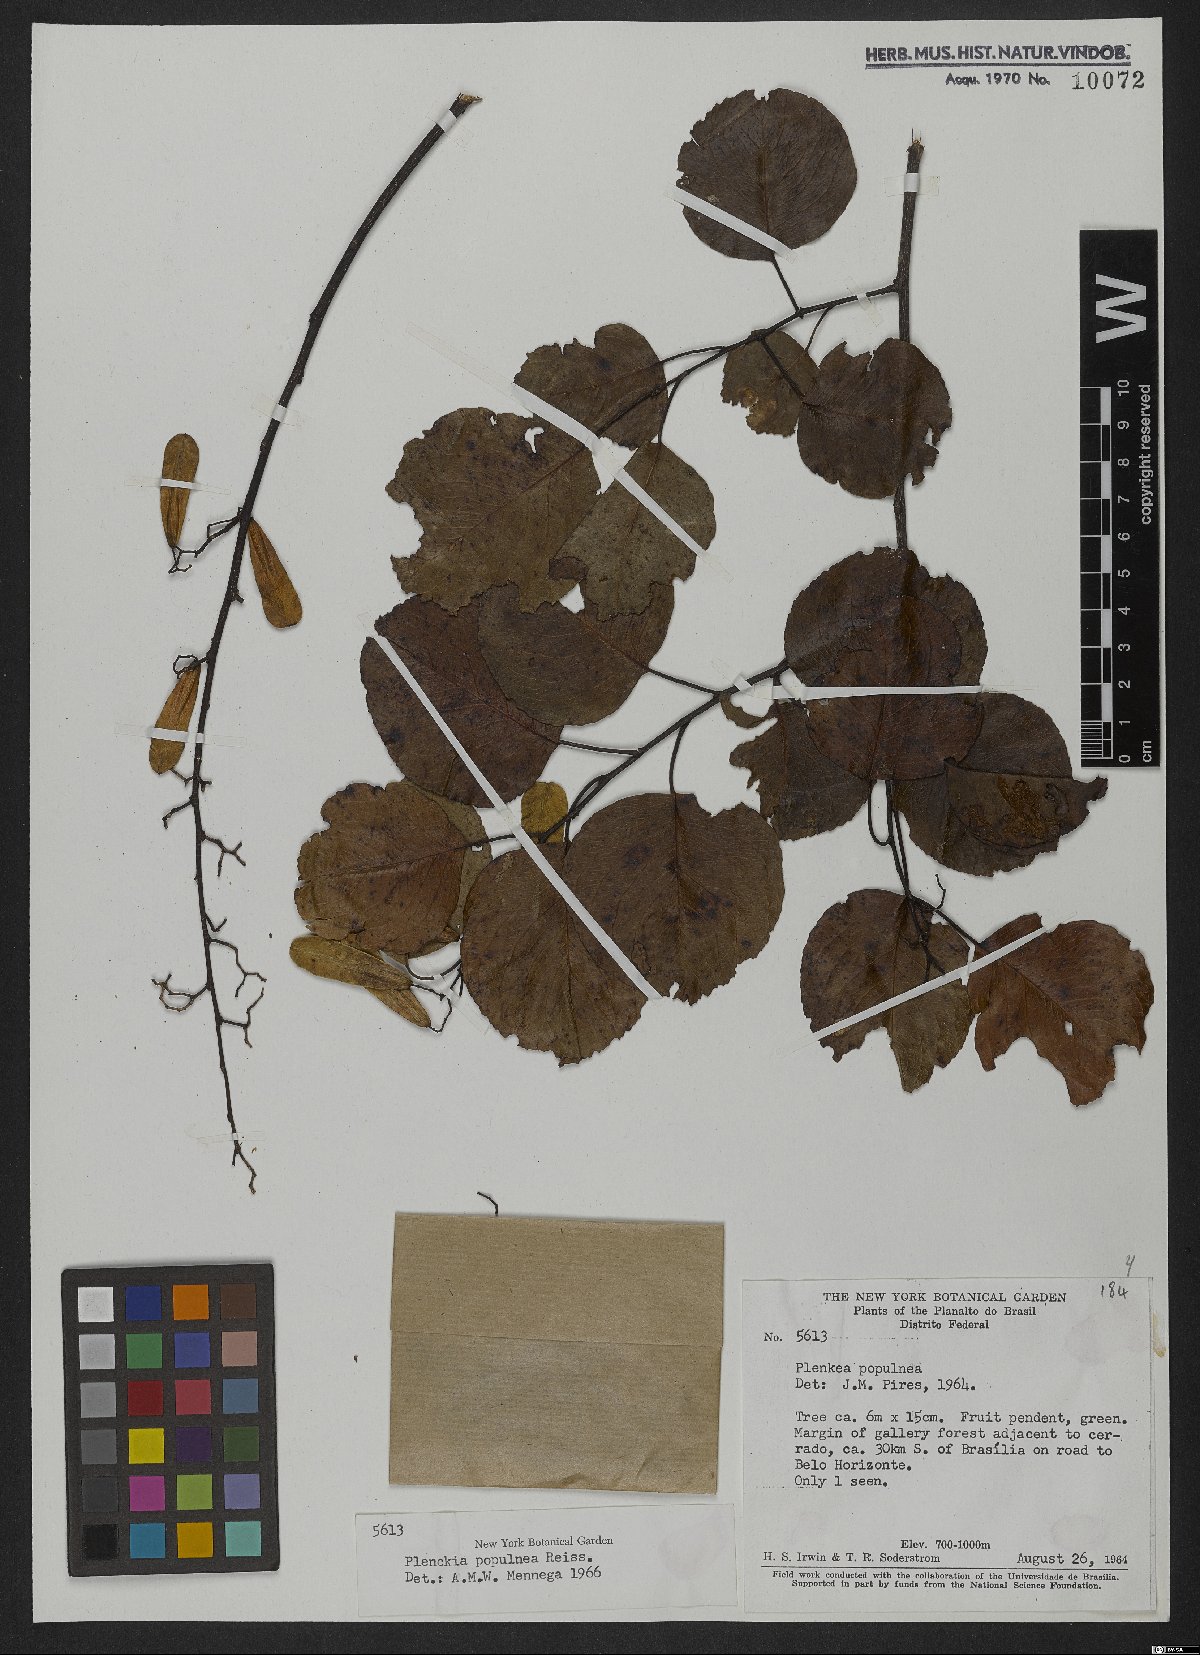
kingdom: Plantae
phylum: Tracheophyta
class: Magnoliopsida
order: Celastrales
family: Celastraceae
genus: Plenckia
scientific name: Plenckia populnea
